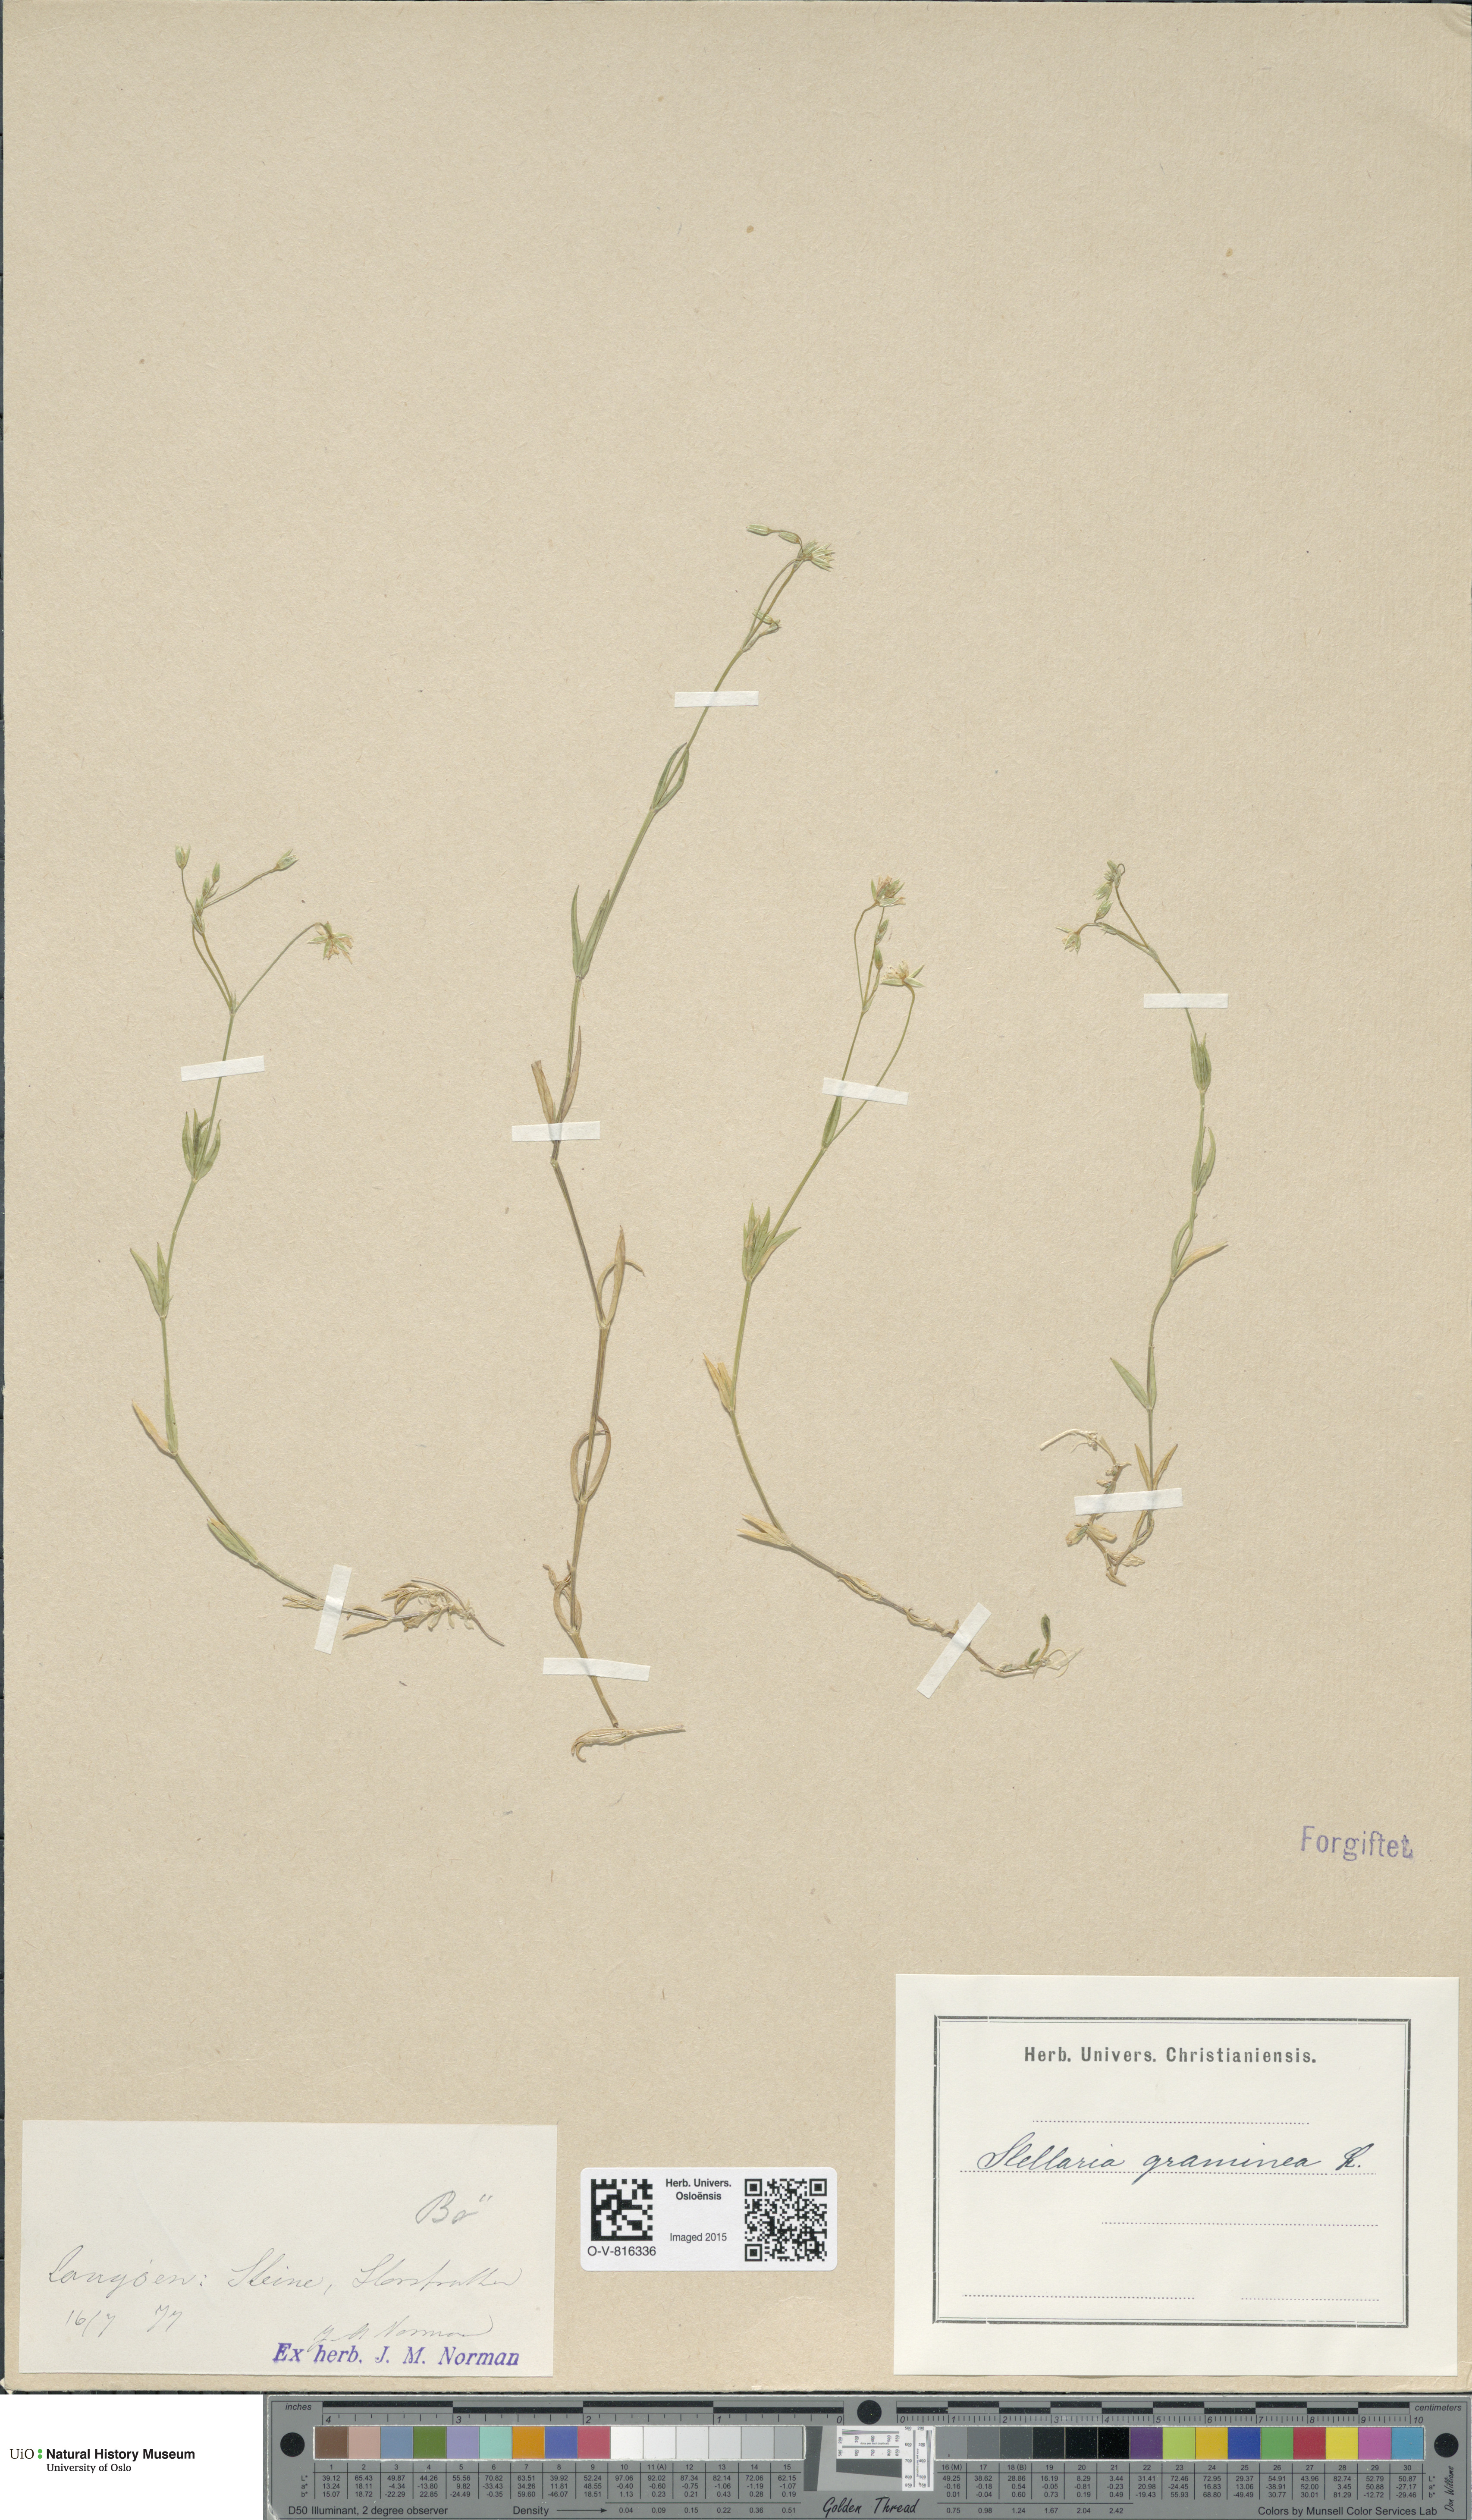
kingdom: Plantae
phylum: Tracheophyta
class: Magnoliopsida
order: Caryophyllales
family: Caryophyllaceae
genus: Stellaria
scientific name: Stellaria graminea
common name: Grass-like starwort
